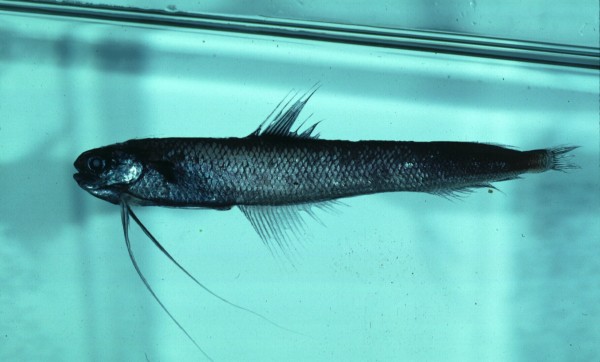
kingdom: Animalia
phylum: Chordata
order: Gadiformes
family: Bregmacerotidae
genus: Bregmaceros
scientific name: Bregmaceros
